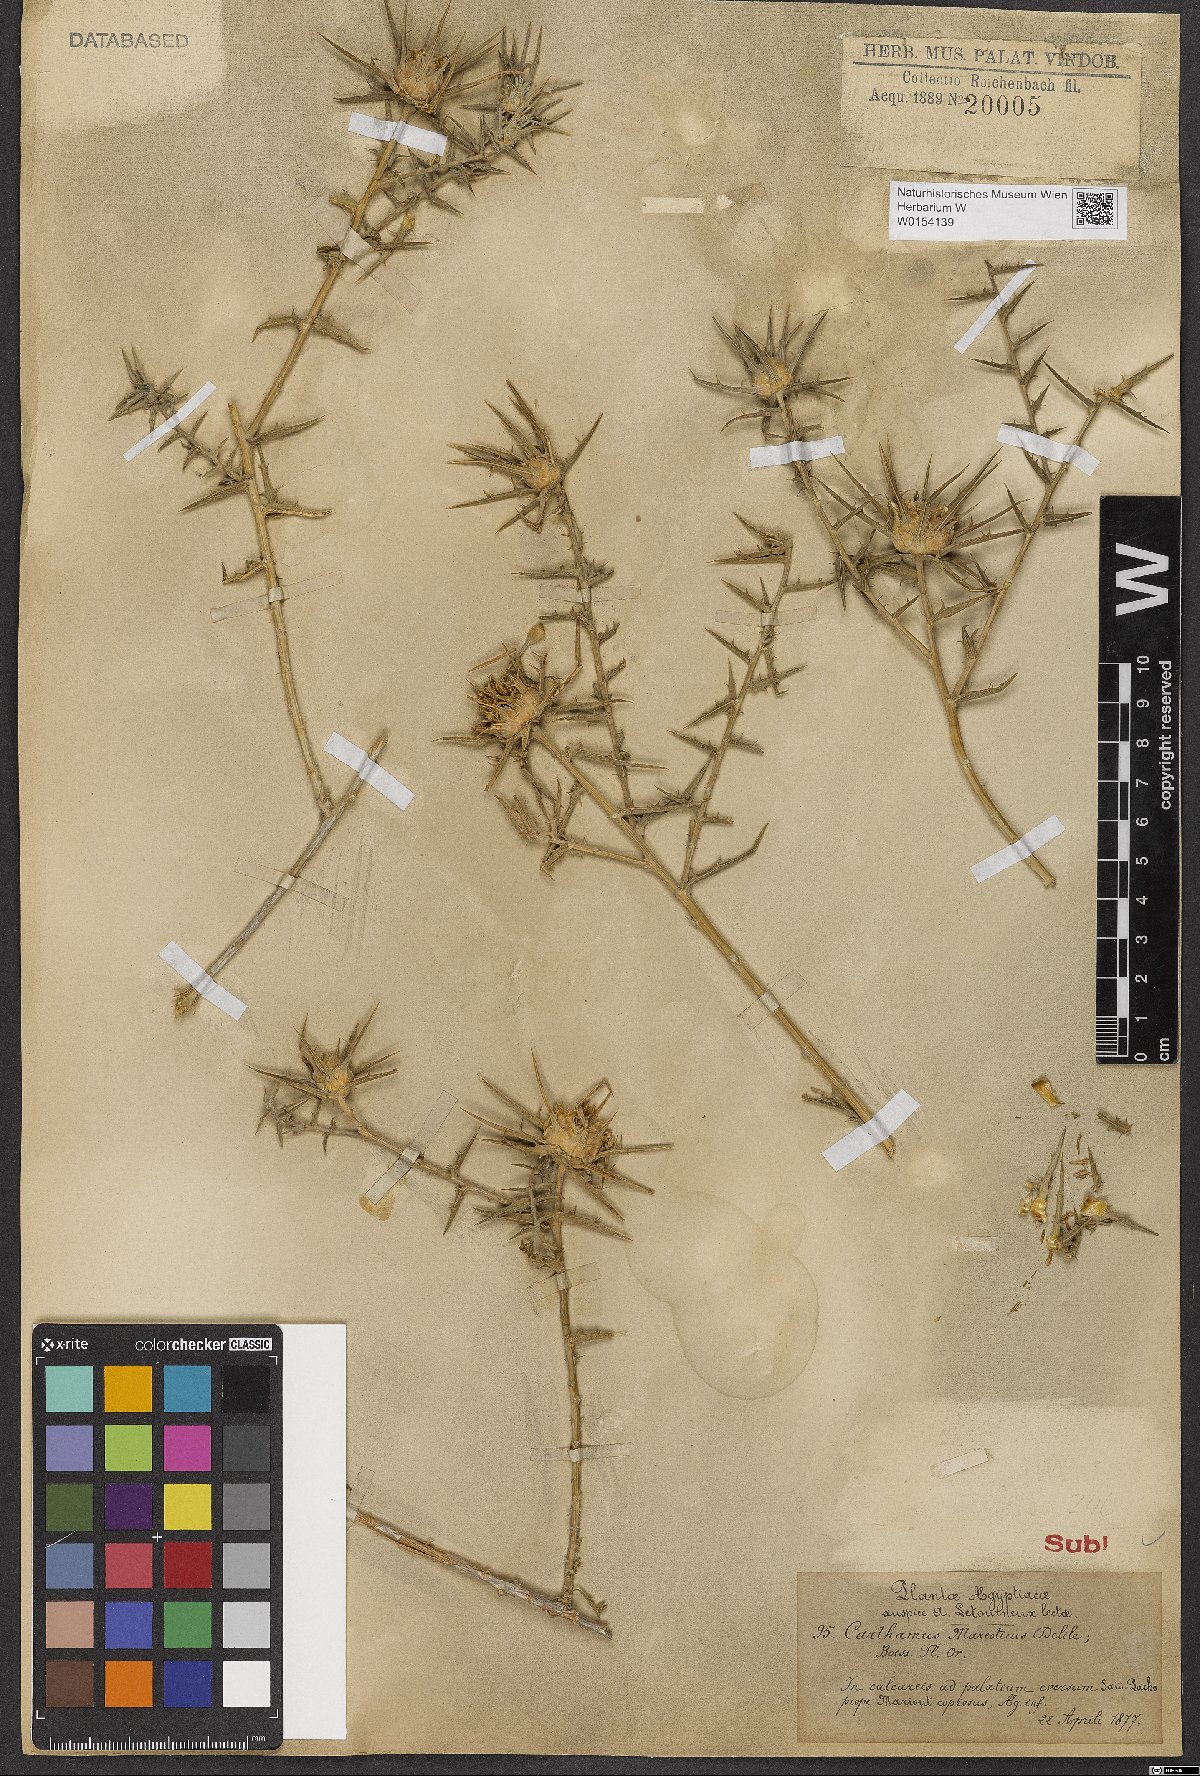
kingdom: Plantae
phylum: Tracheophyta
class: Magnoliopsida
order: Asterales
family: Asteraceae
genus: Phonus
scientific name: Phonus mareoticus
